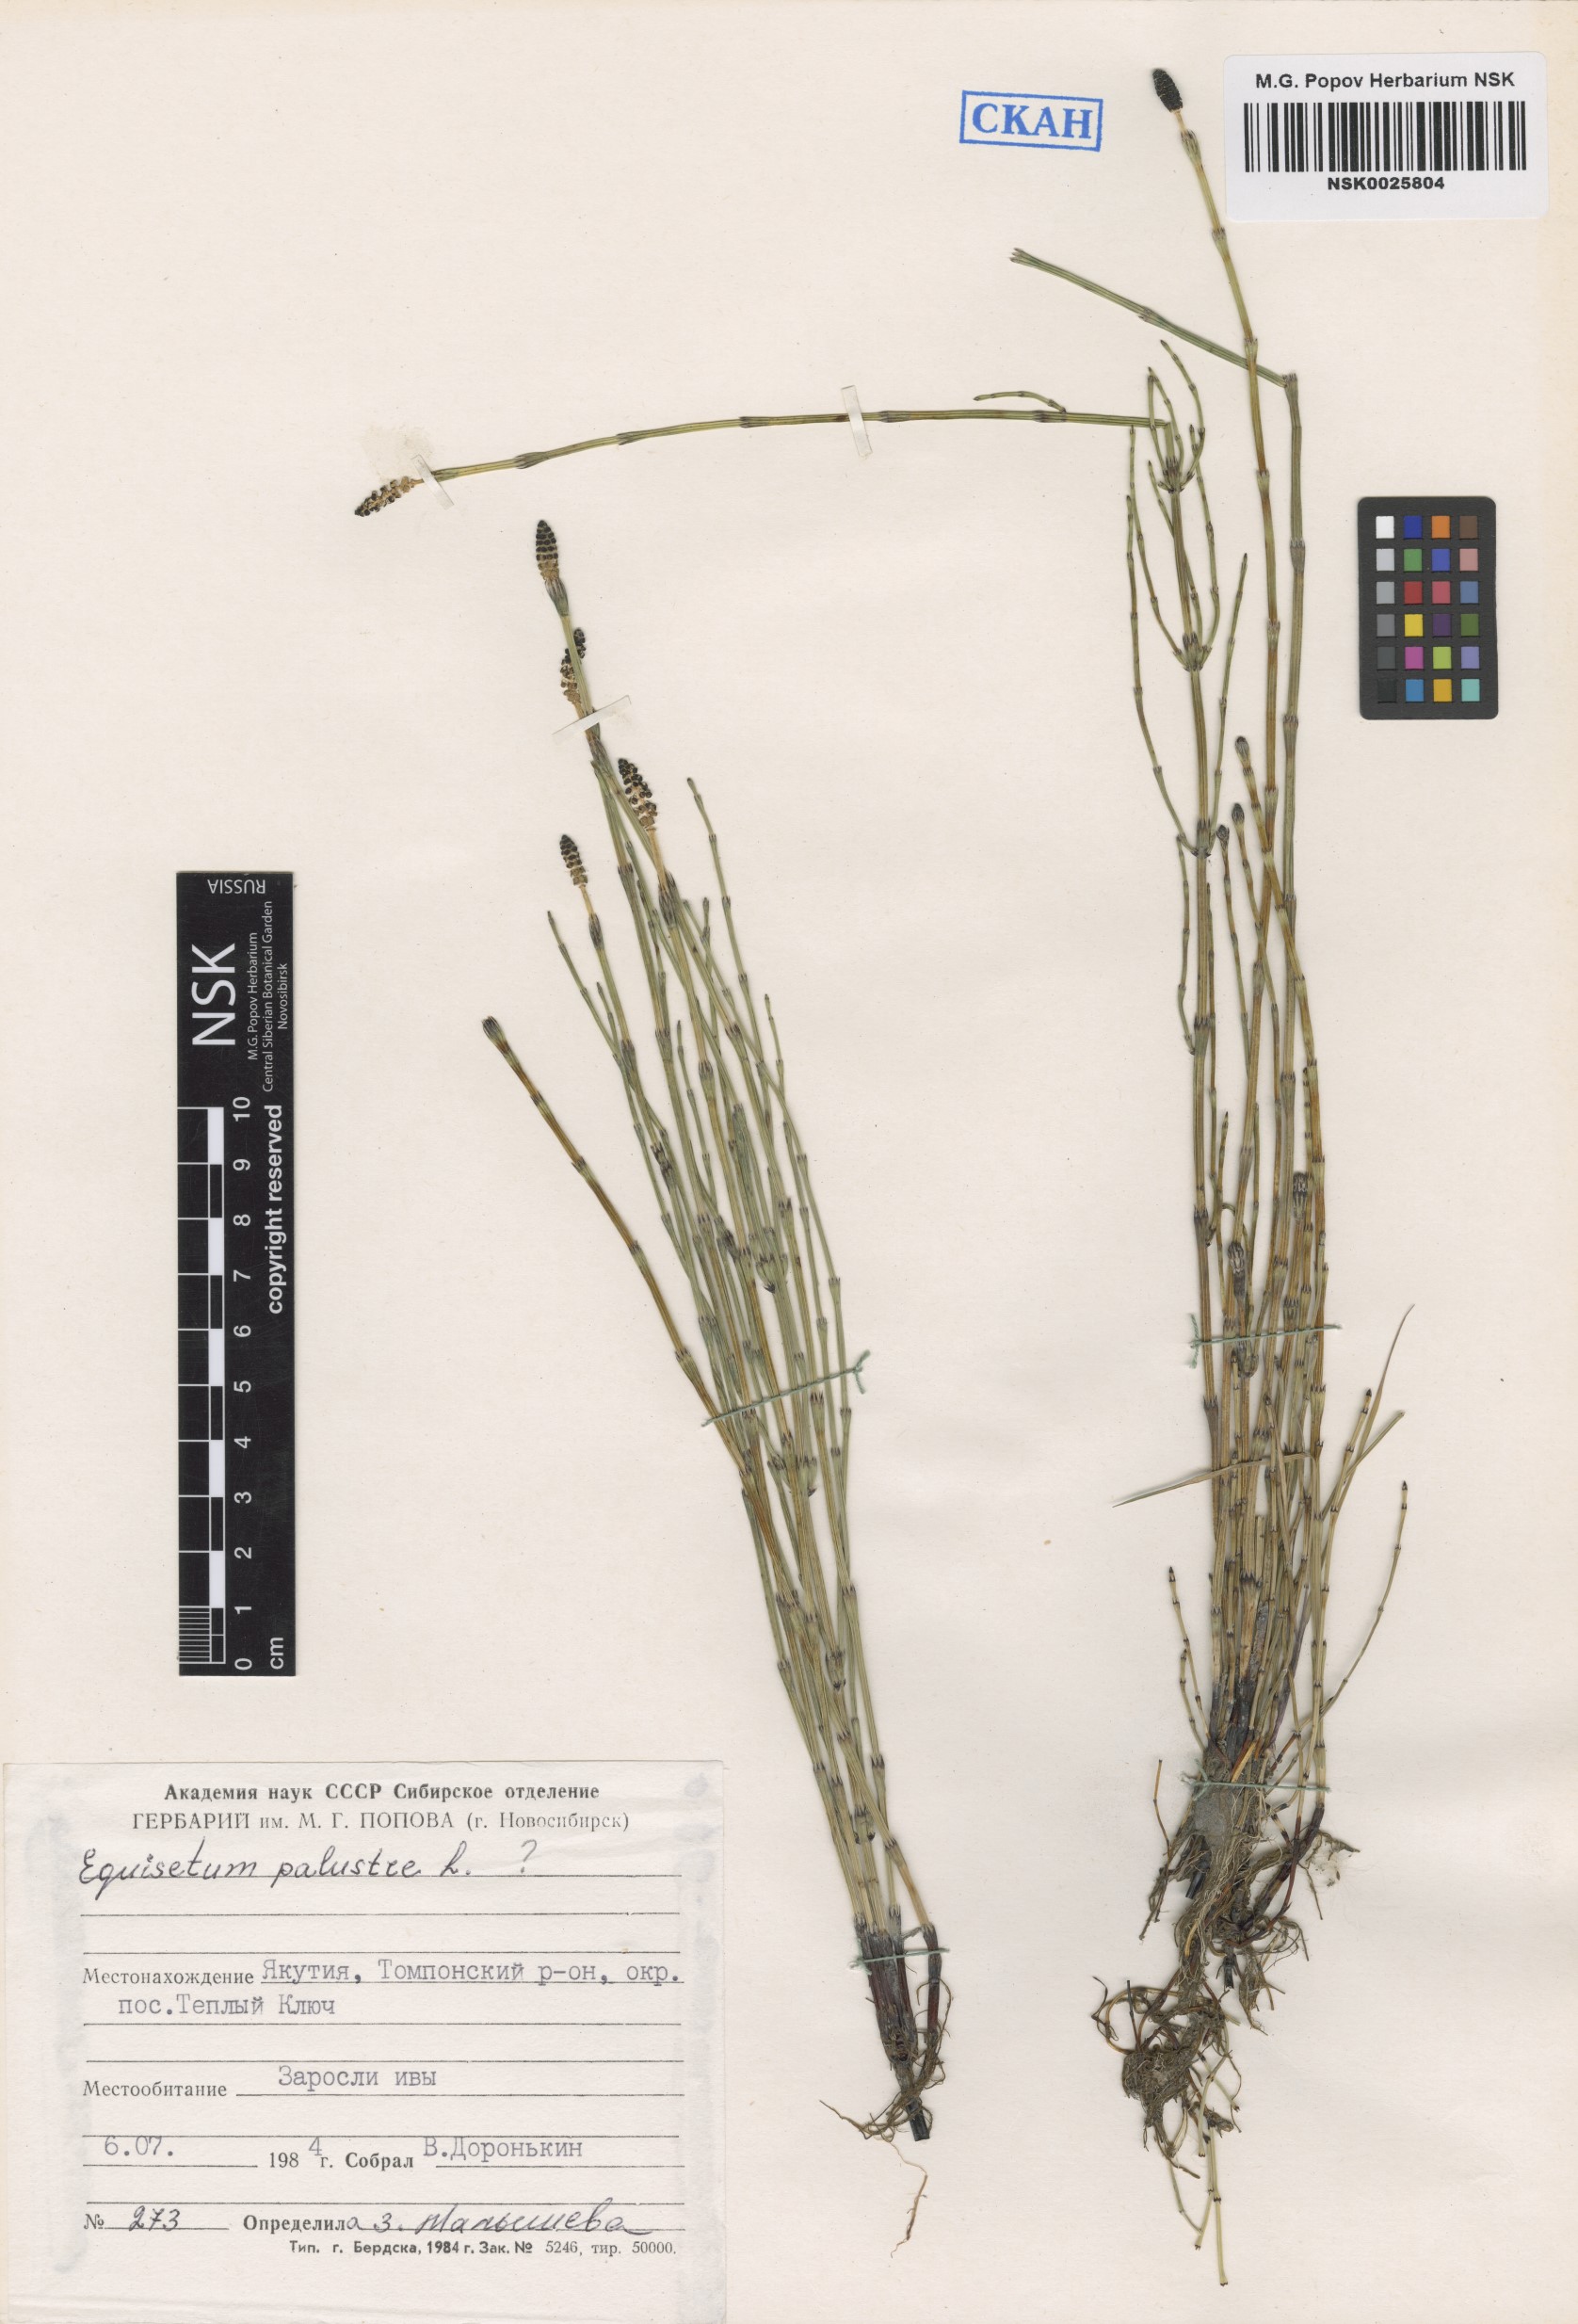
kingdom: Plantae
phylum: Tracheophyta
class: Polypodiopsida
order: Equisetales
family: Equisetaceae
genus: Equisetum
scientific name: Equisetum palustre
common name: Marsh horsetail
